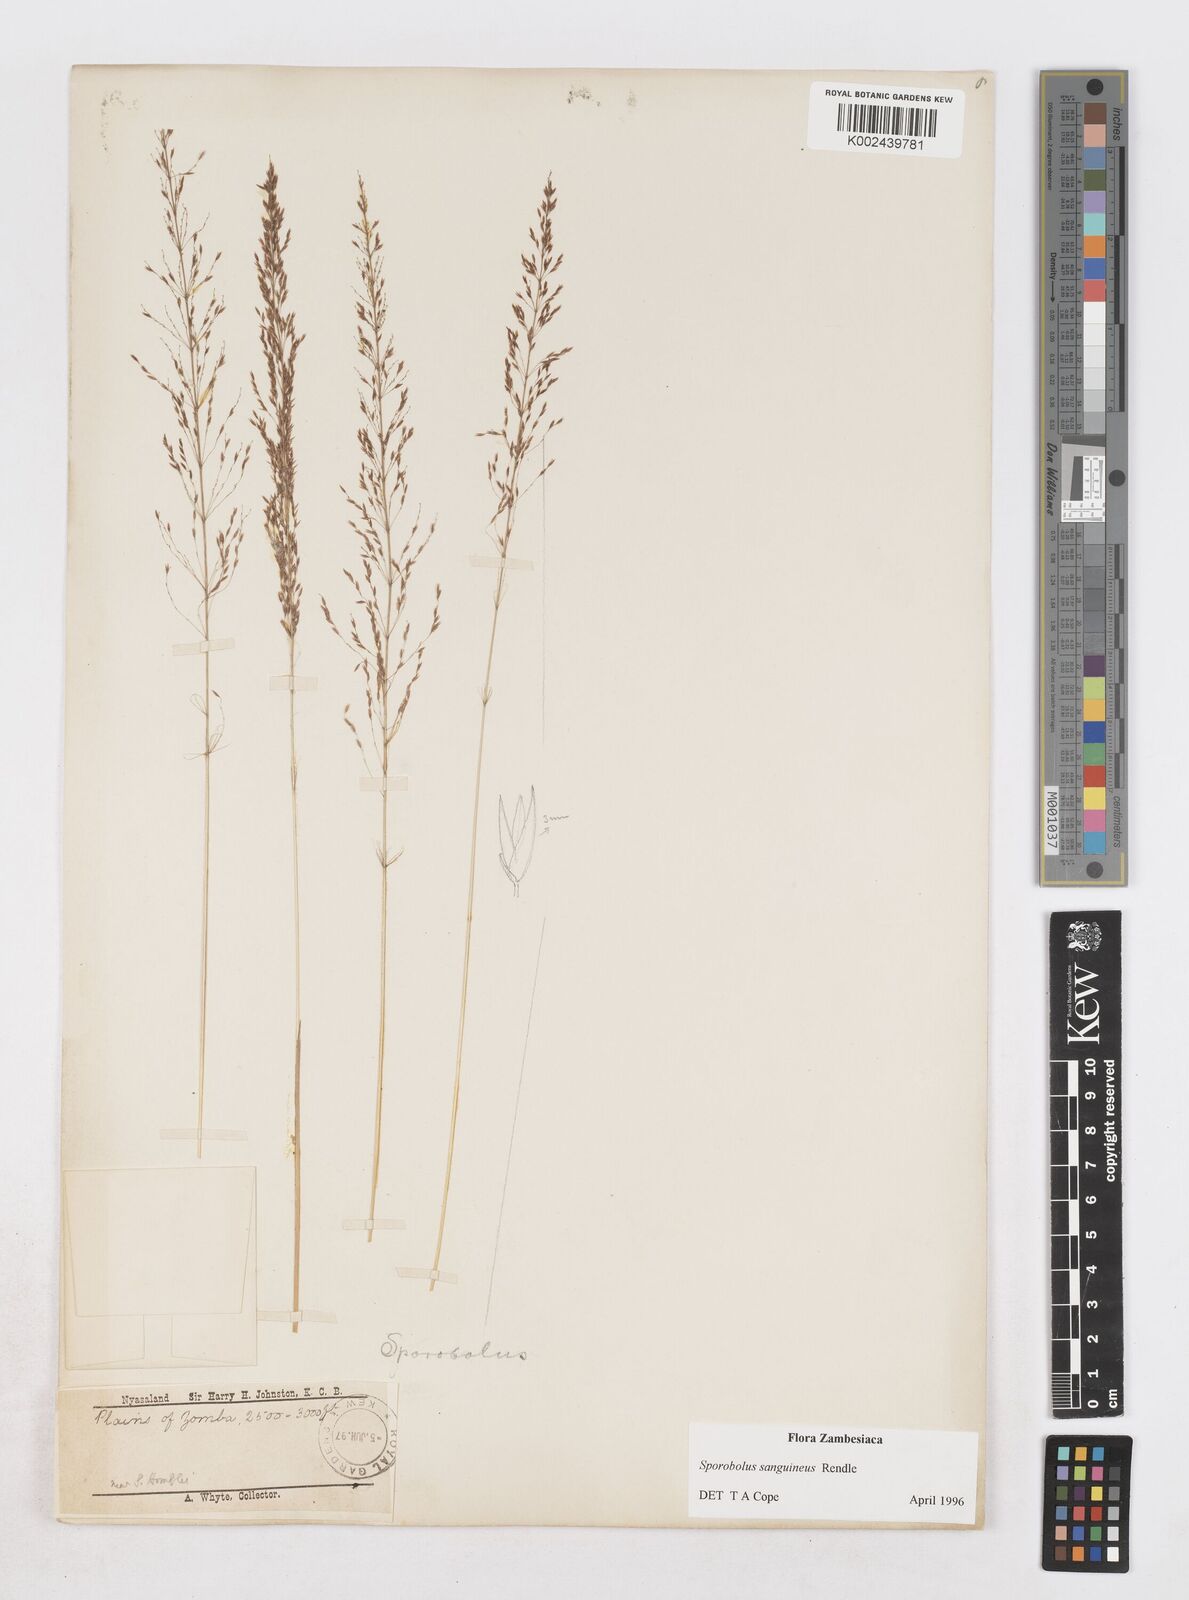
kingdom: Plantae
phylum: Tracheophyta
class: Liliopsida
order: Poales
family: Poaceae
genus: Sporobolus
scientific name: Sporobolus sanguineus
